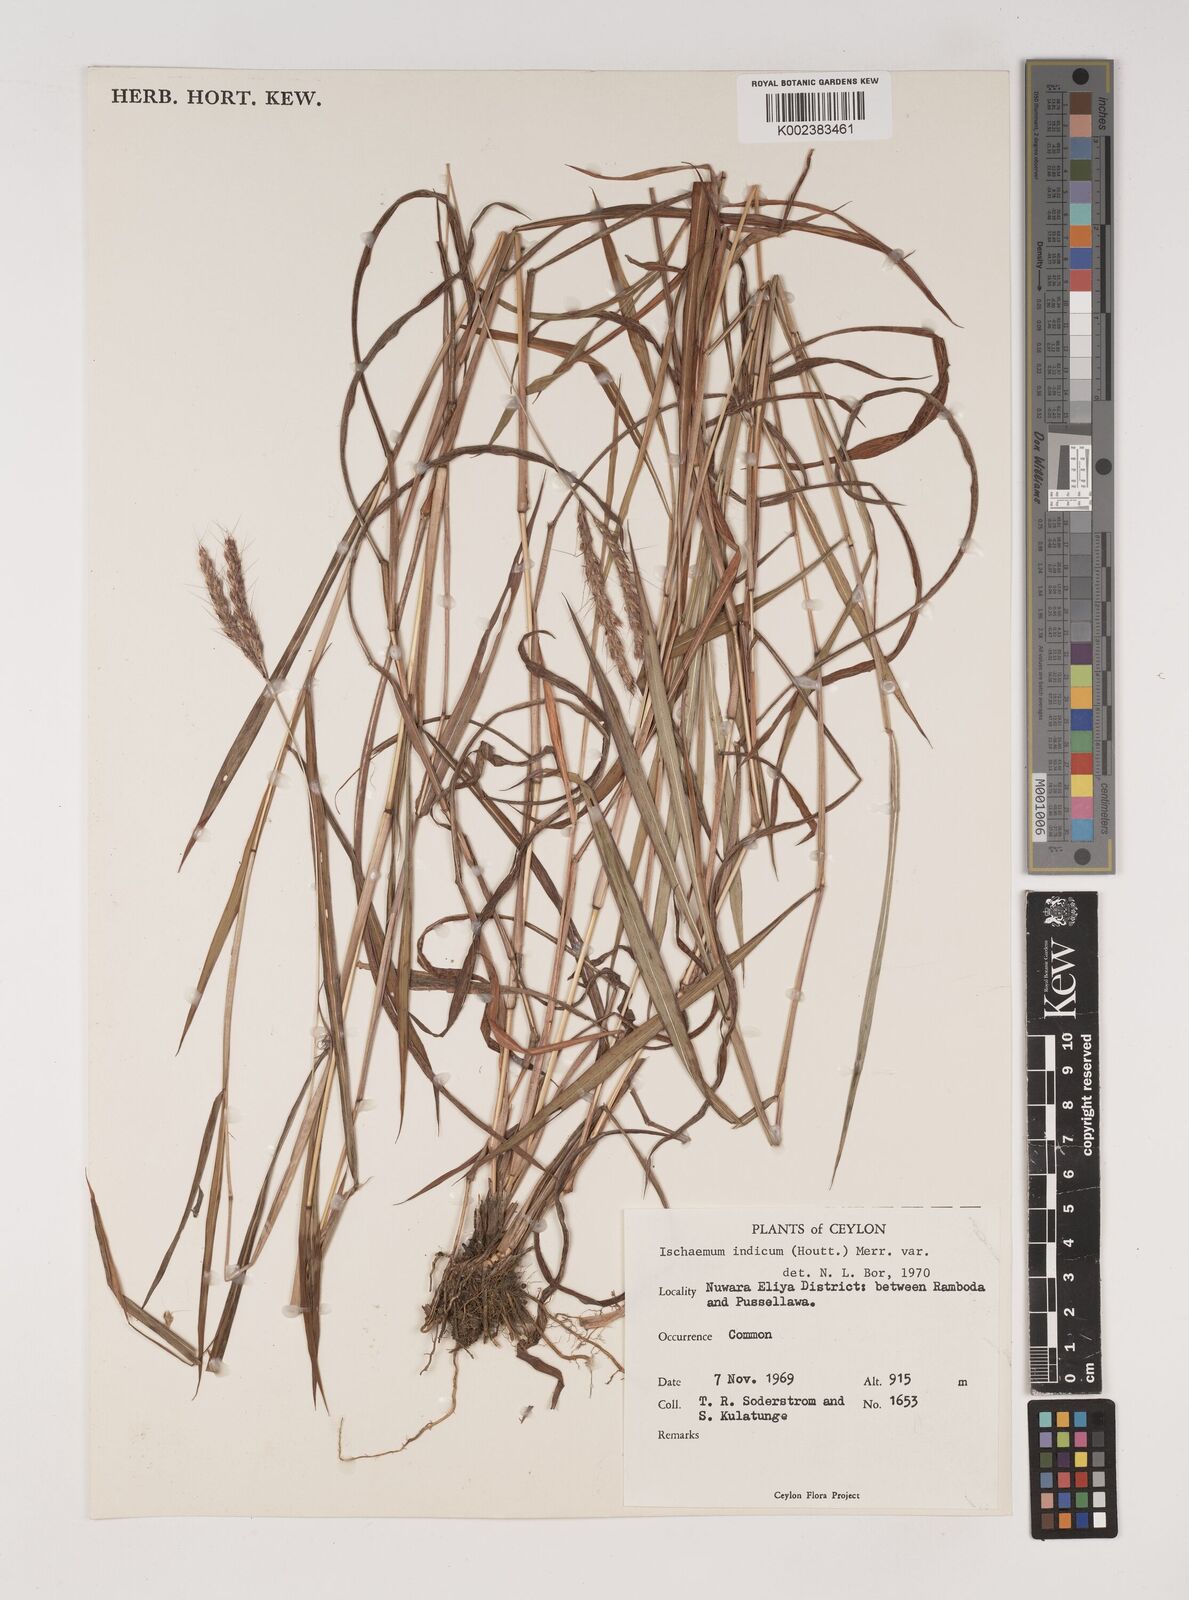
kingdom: Plantae
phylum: Tracheophyta
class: Liliopsida
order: Poales
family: Poaceae
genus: Polytrias
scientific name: Polytrias indica
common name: Indian murainagrass
